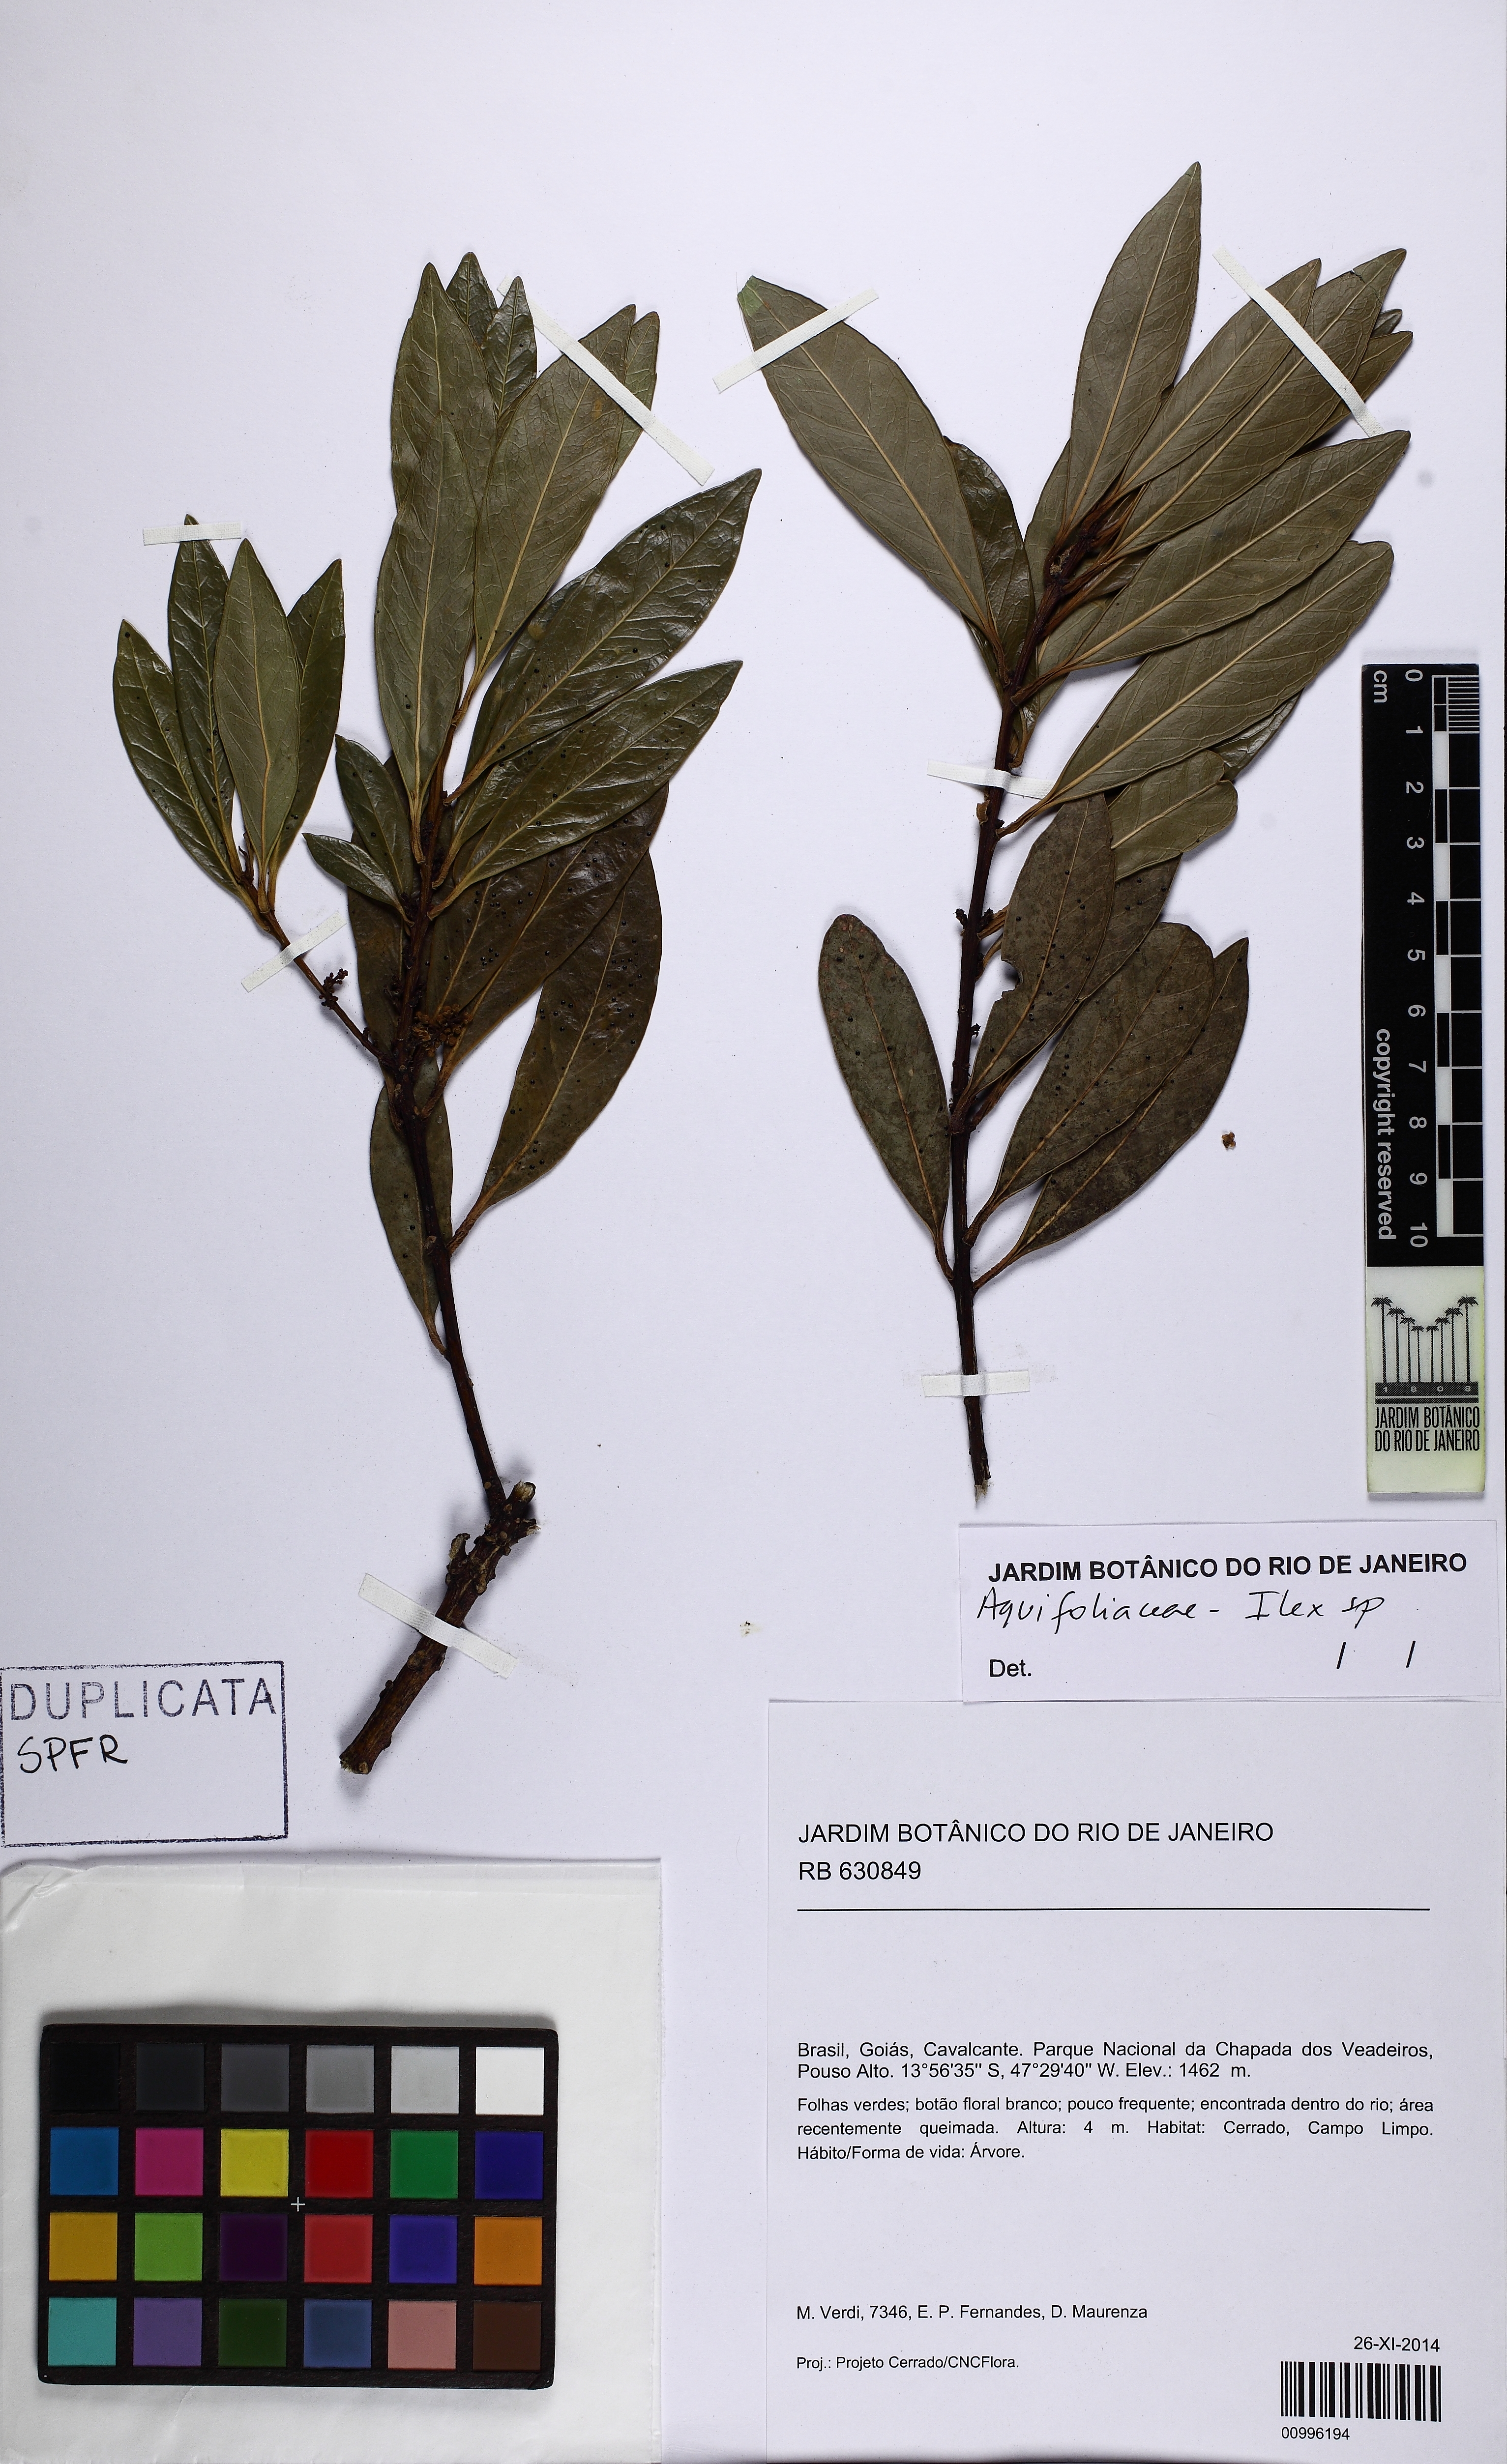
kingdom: Plantae
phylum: Tracheophyta
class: Magnoliopsida
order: Aquifoliales
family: Aquifoliaceae
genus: Ilex
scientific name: Ilex
